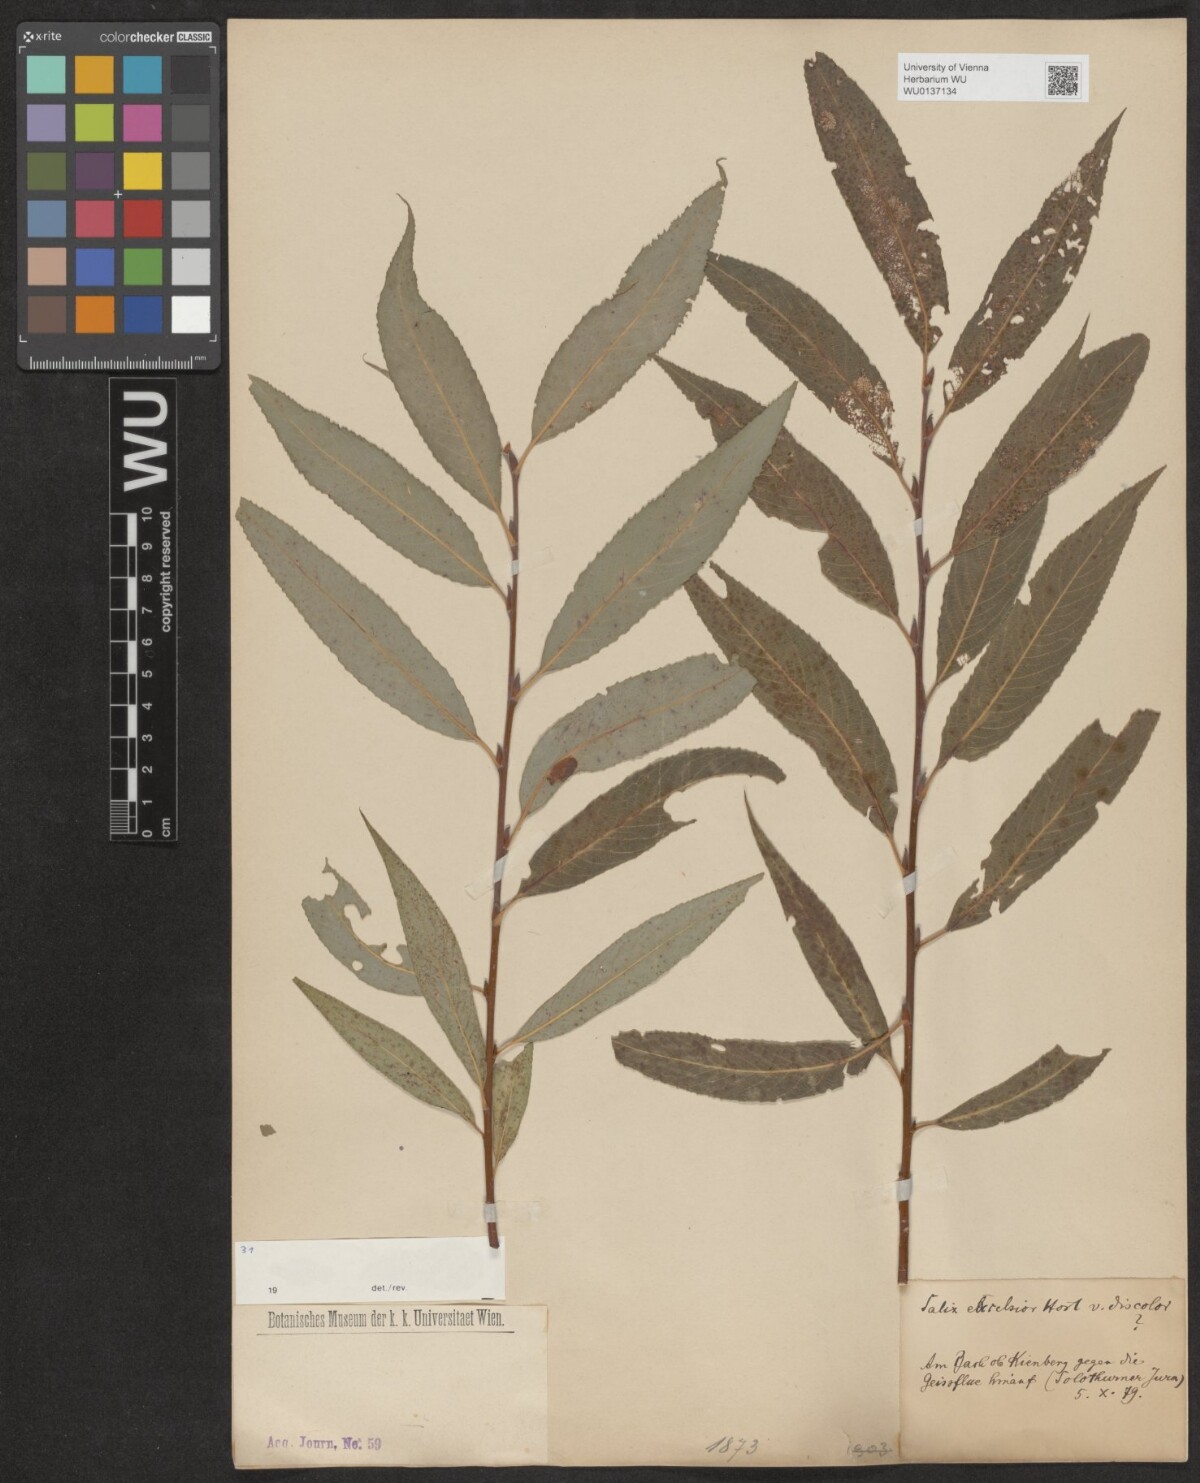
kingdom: Plantae
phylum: Tracheophyta
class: Magnoliopsida
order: Malpighiales
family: Salicaceae
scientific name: Salicaceae
